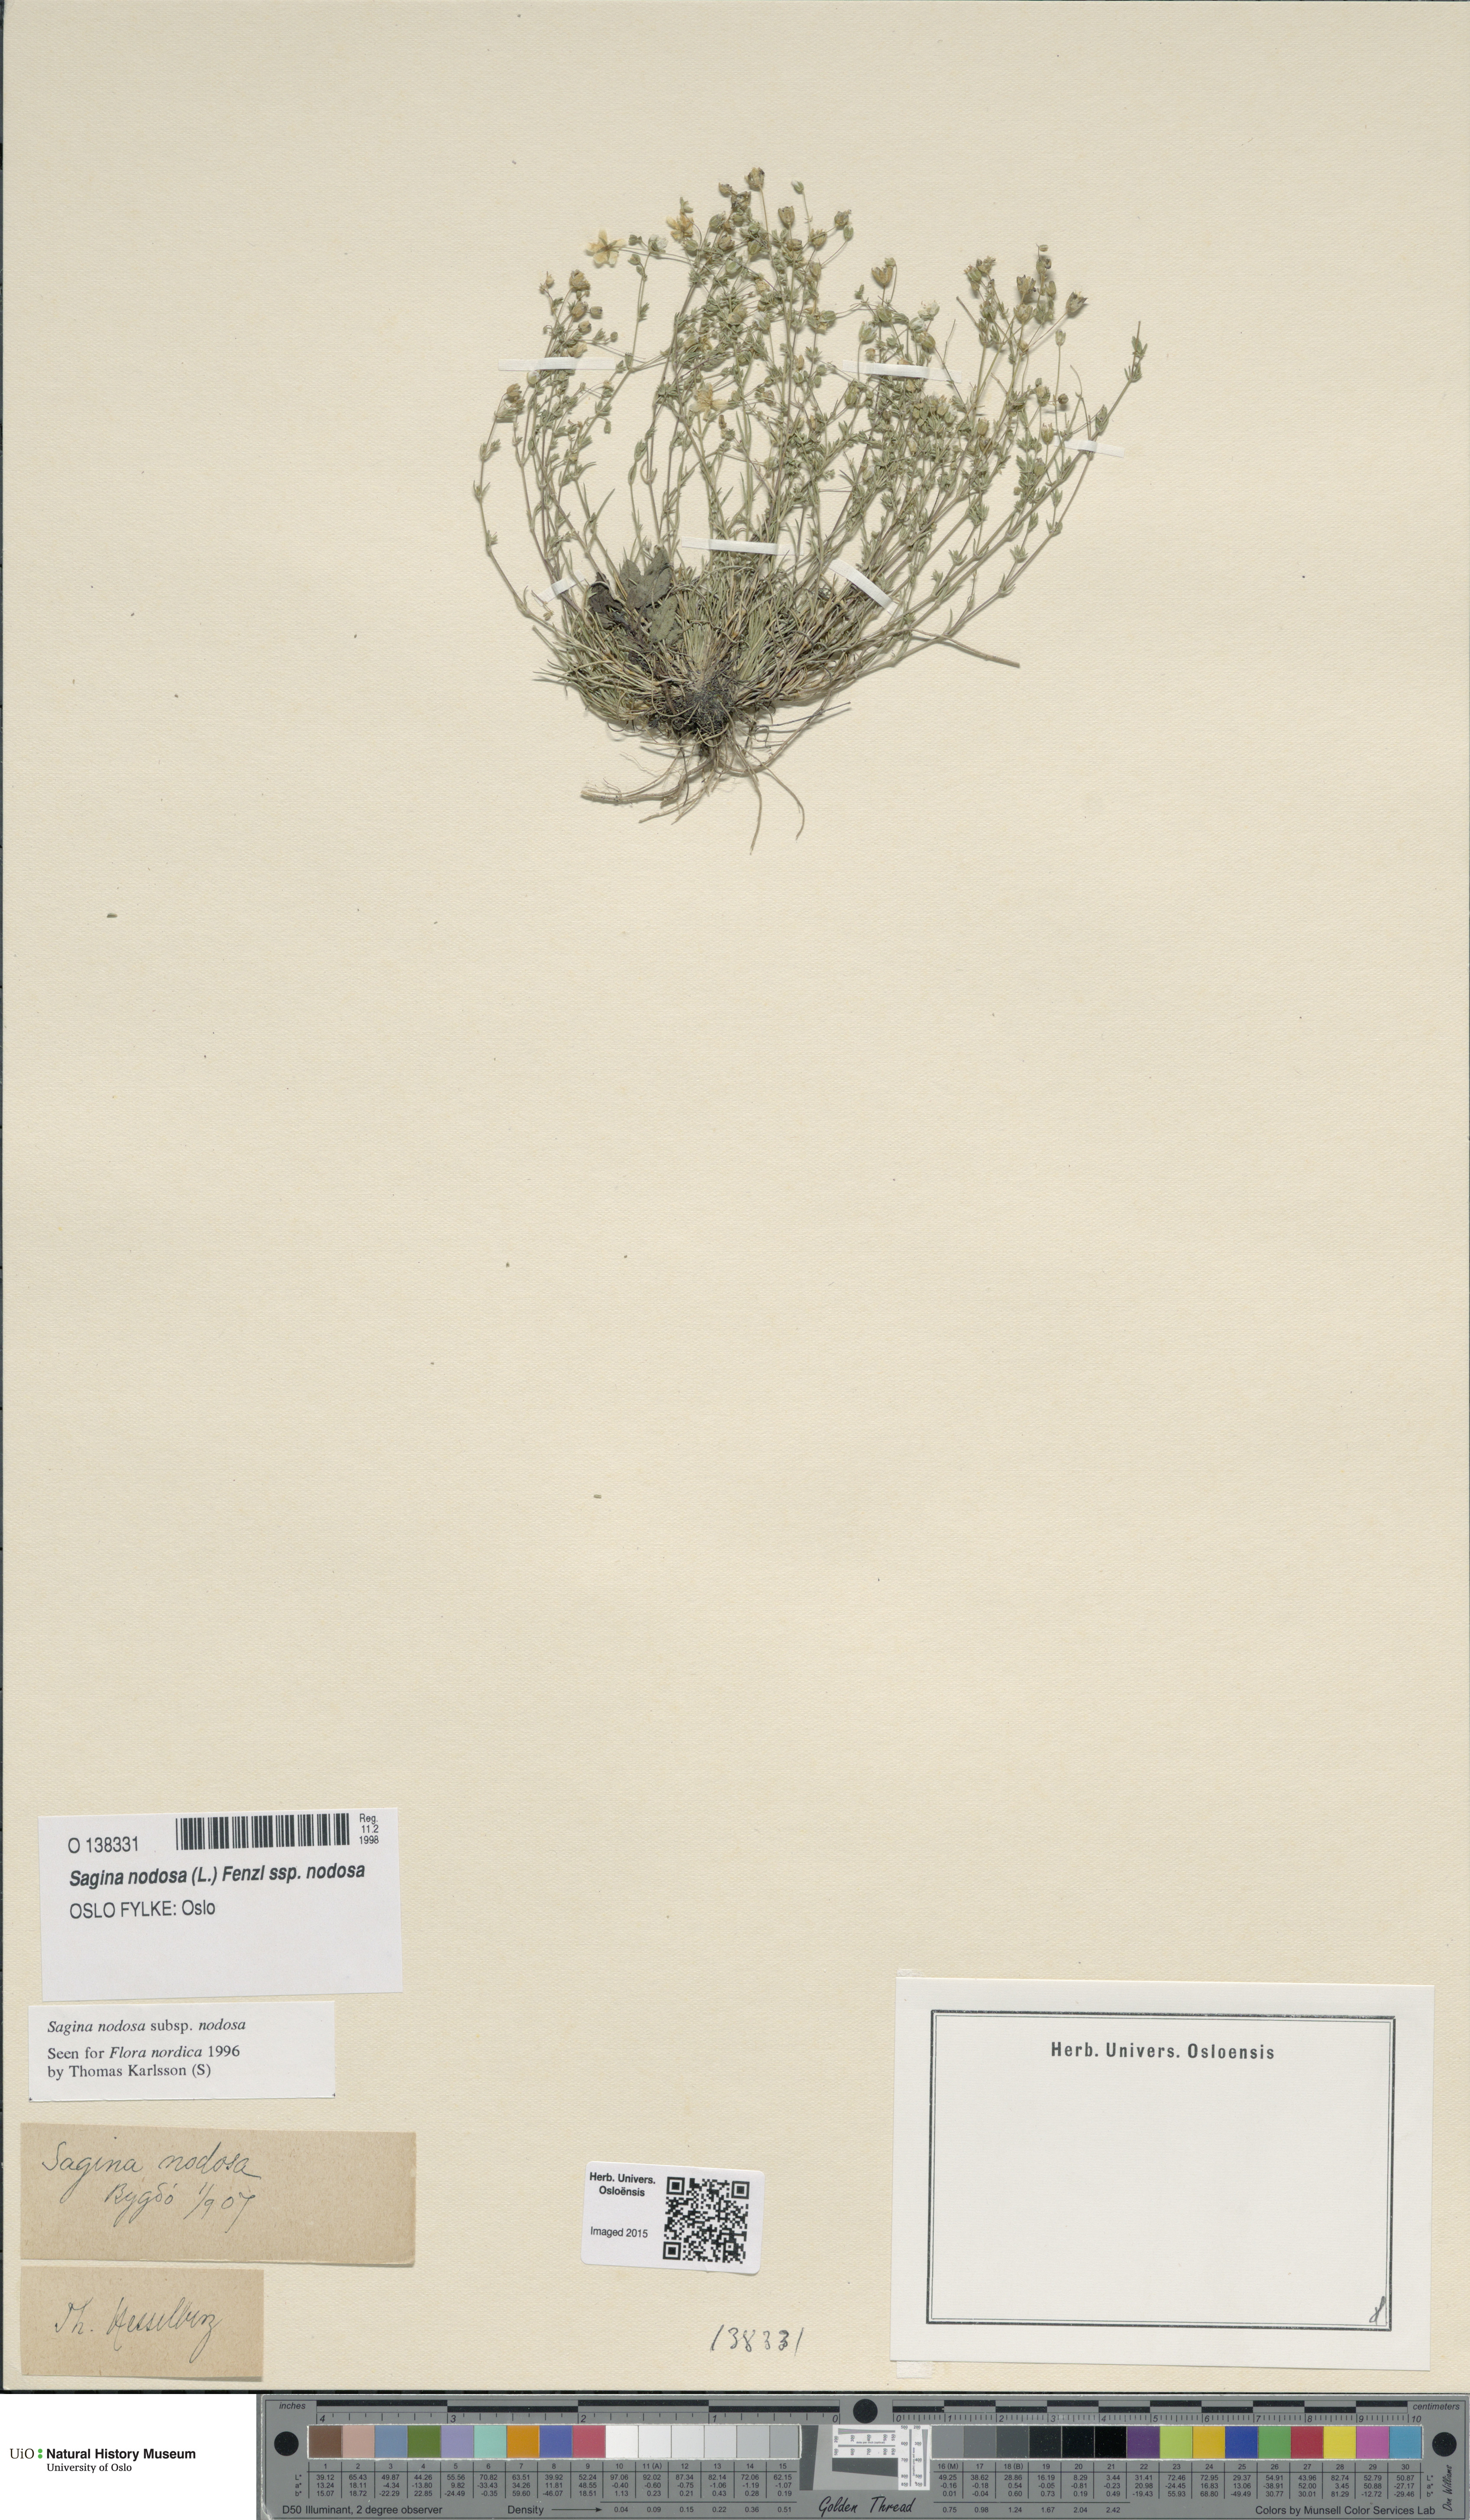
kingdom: Plantae
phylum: Tracheophyta
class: Magnoliopsida
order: Caryophyllales
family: Caryophyllaceae
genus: Sagina
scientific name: Sagina nodosa
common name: Knotted pearlwort
